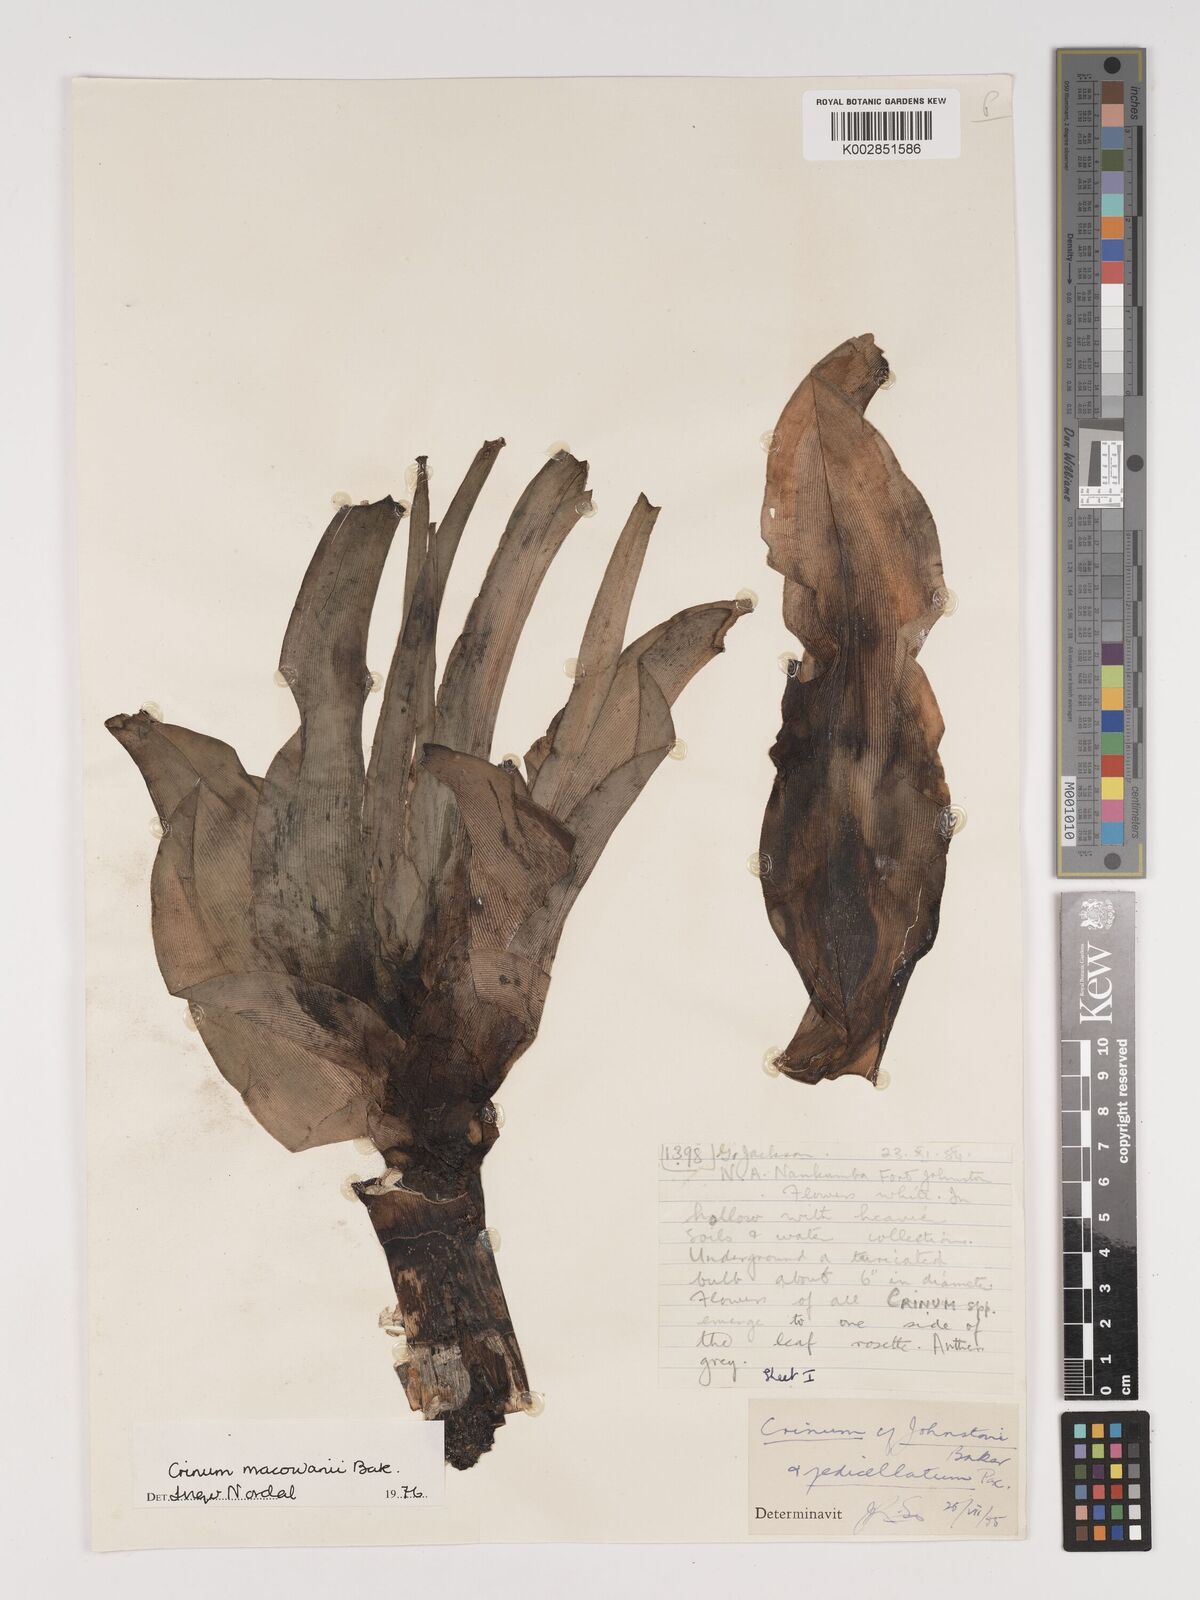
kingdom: Plantae
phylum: Tracheophyta
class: Liliopsida
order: Asparagales
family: Amaryllidaceae
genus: Crinum
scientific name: Crinum macowanii
